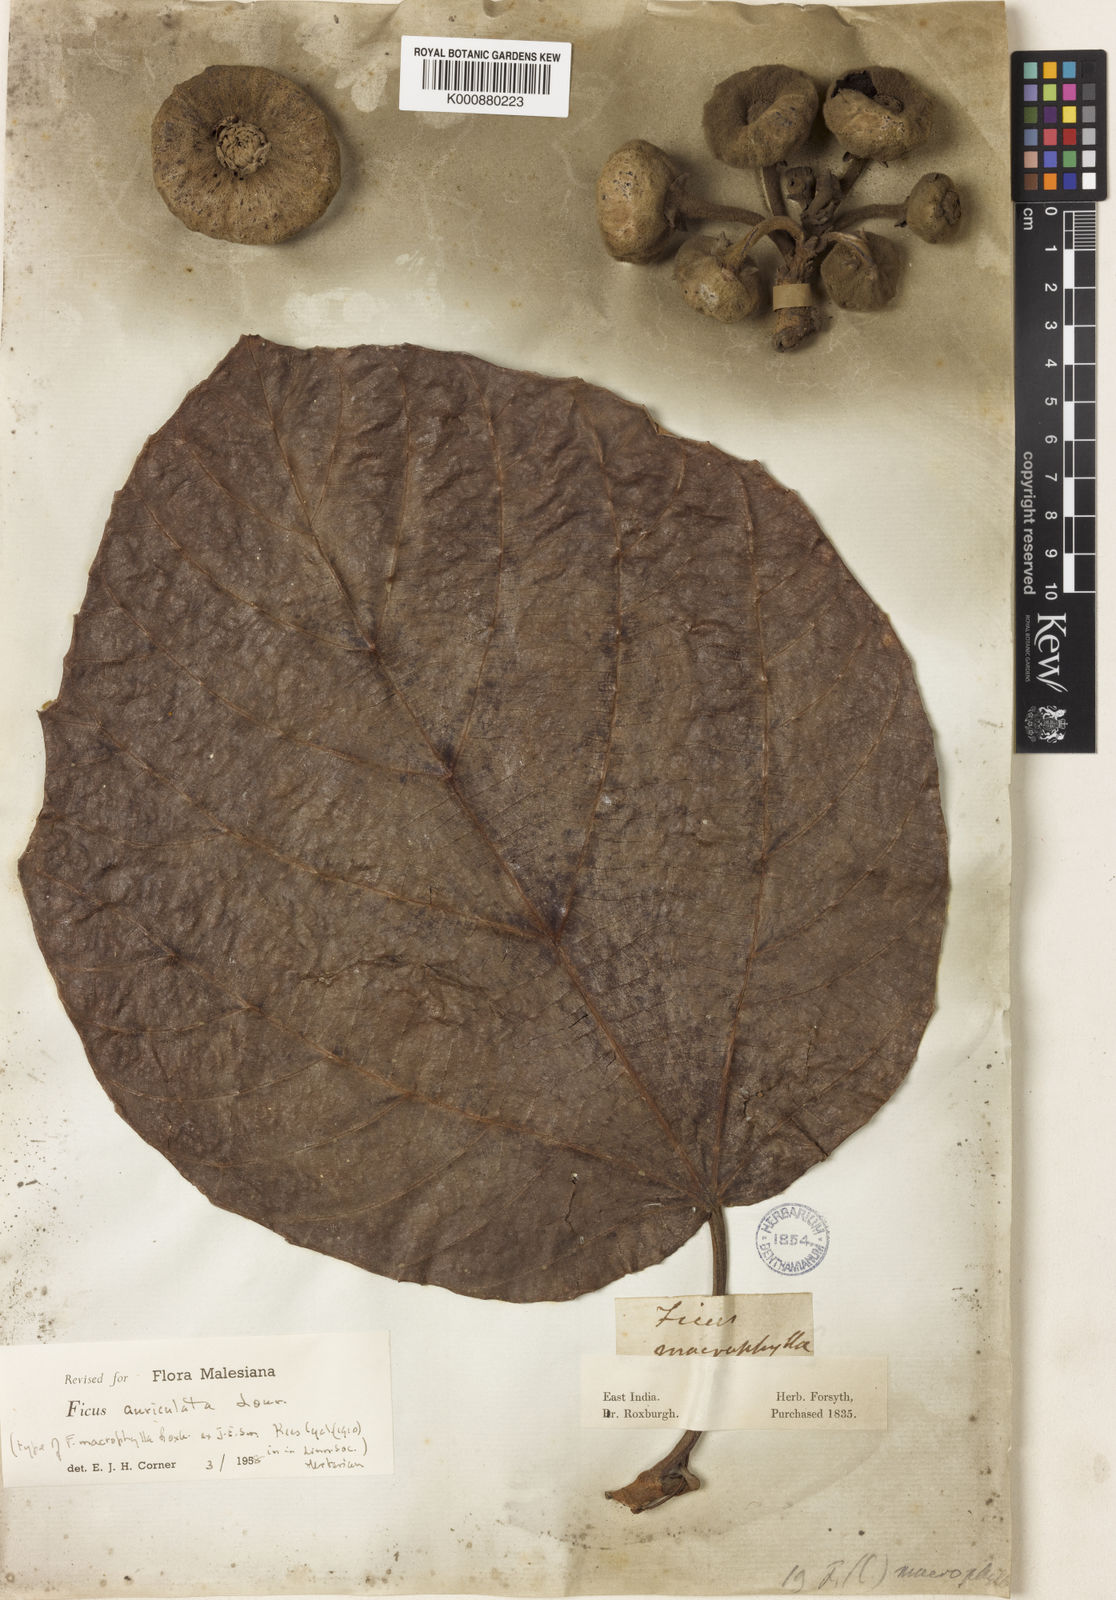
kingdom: Plantae
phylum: Tracheophyta
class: Magnoliopsida
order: Rosales
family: Moraceae
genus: Ficus
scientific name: Ficus auriculata
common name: Roxburgh fig
